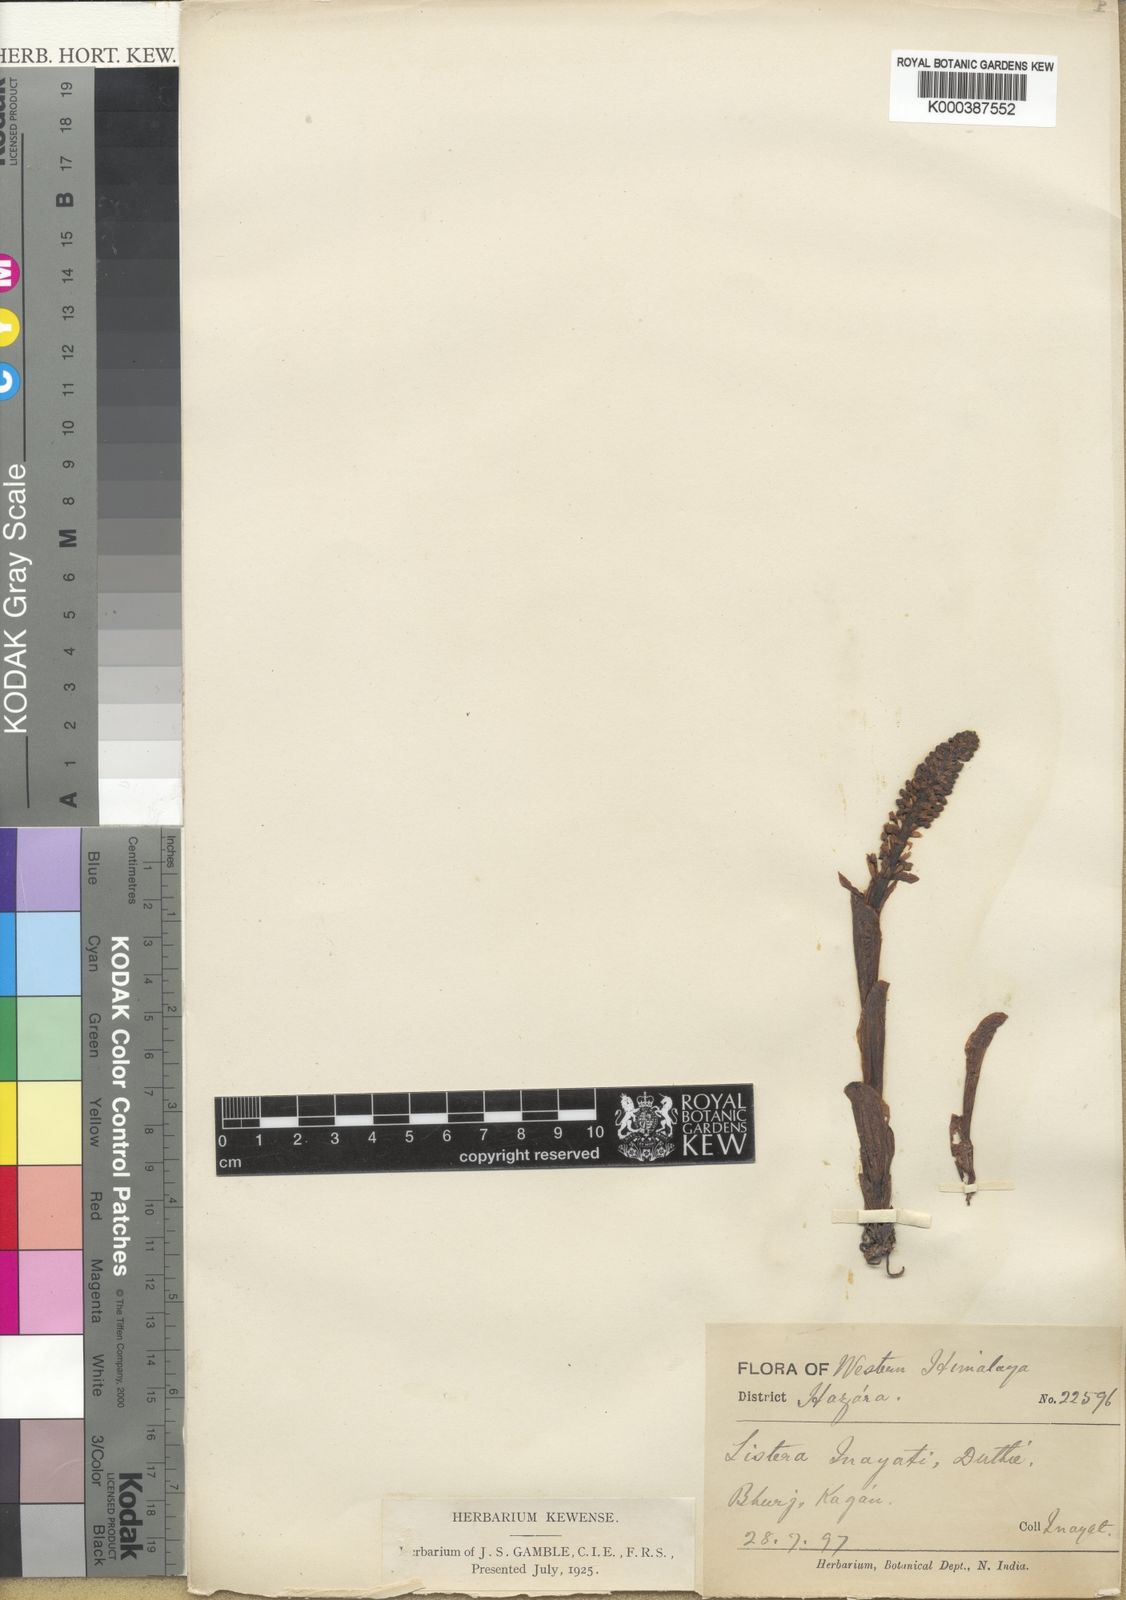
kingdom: Plantae
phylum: Tracheophyta
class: Liliopsida
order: Asparagales
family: Orchidaceae
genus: Neottia
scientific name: Neottia inayatii
